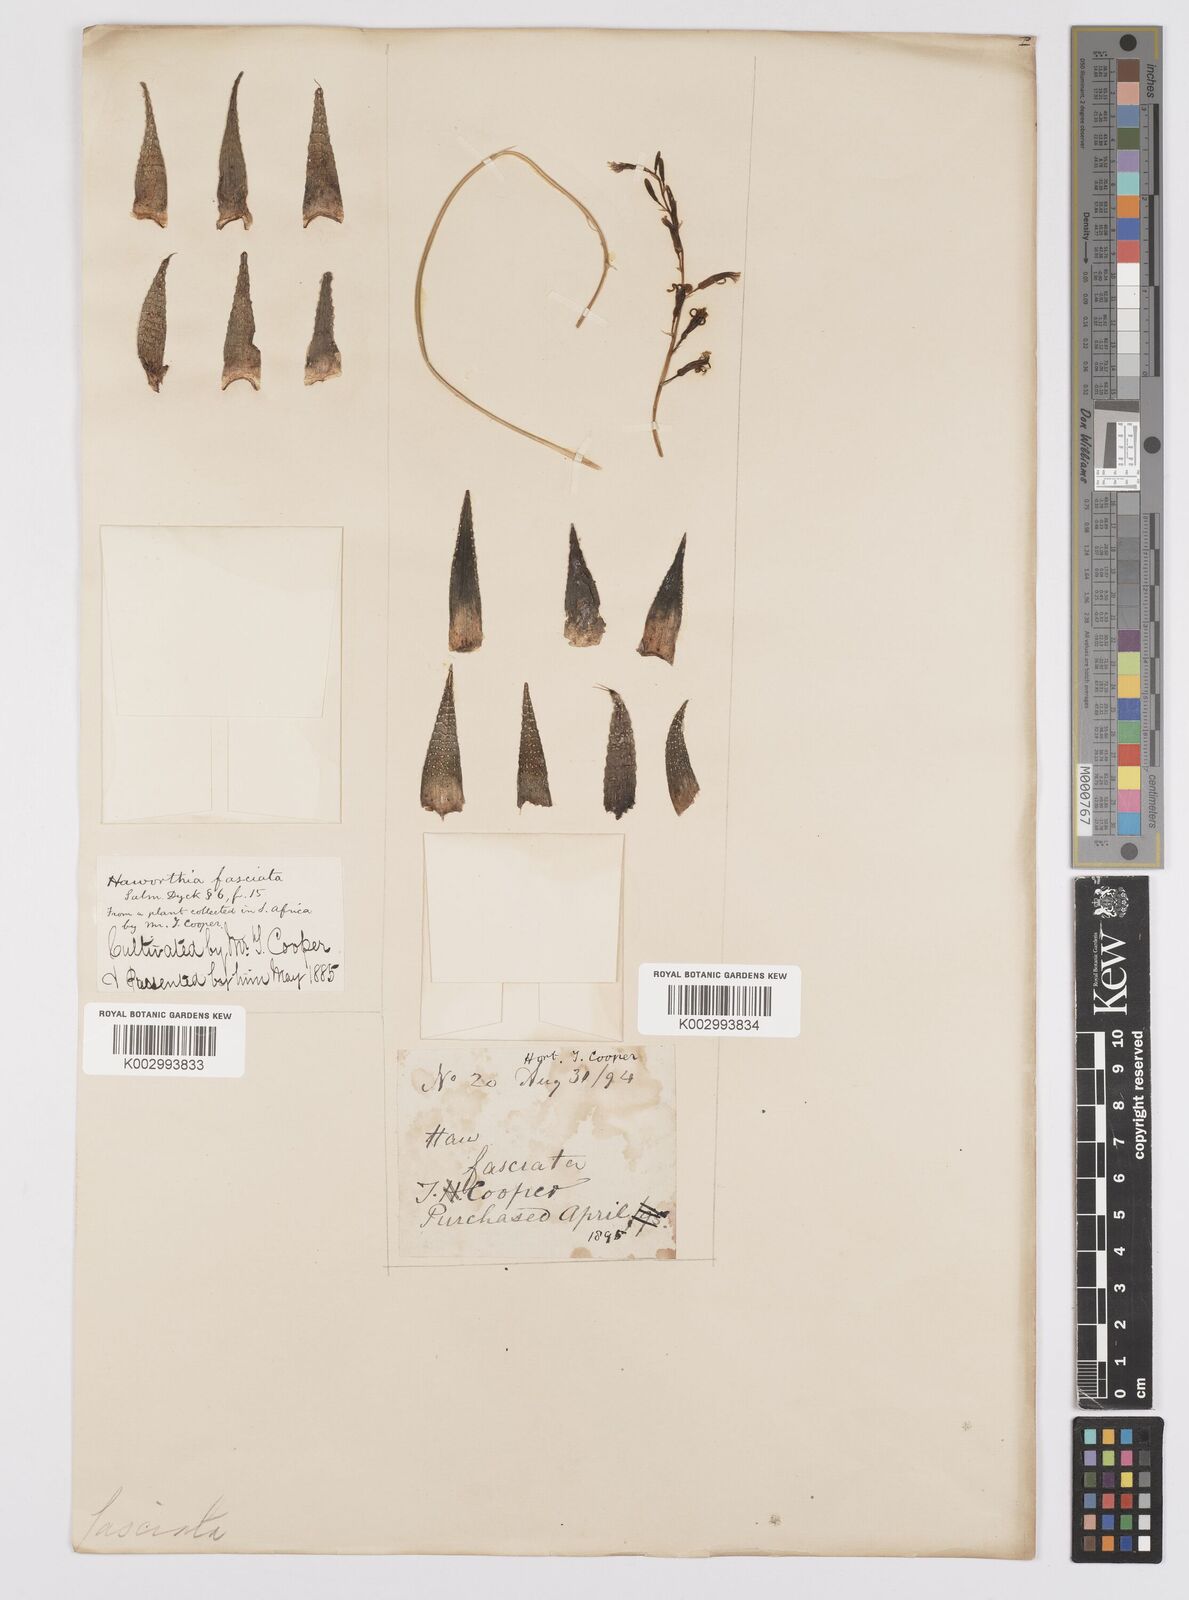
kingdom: Plantae
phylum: Tracheophyta
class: Liliopsida
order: Asparagales
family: Asphodelaceae
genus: Haworthiopsis
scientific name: Haworthiopsis fasciata
